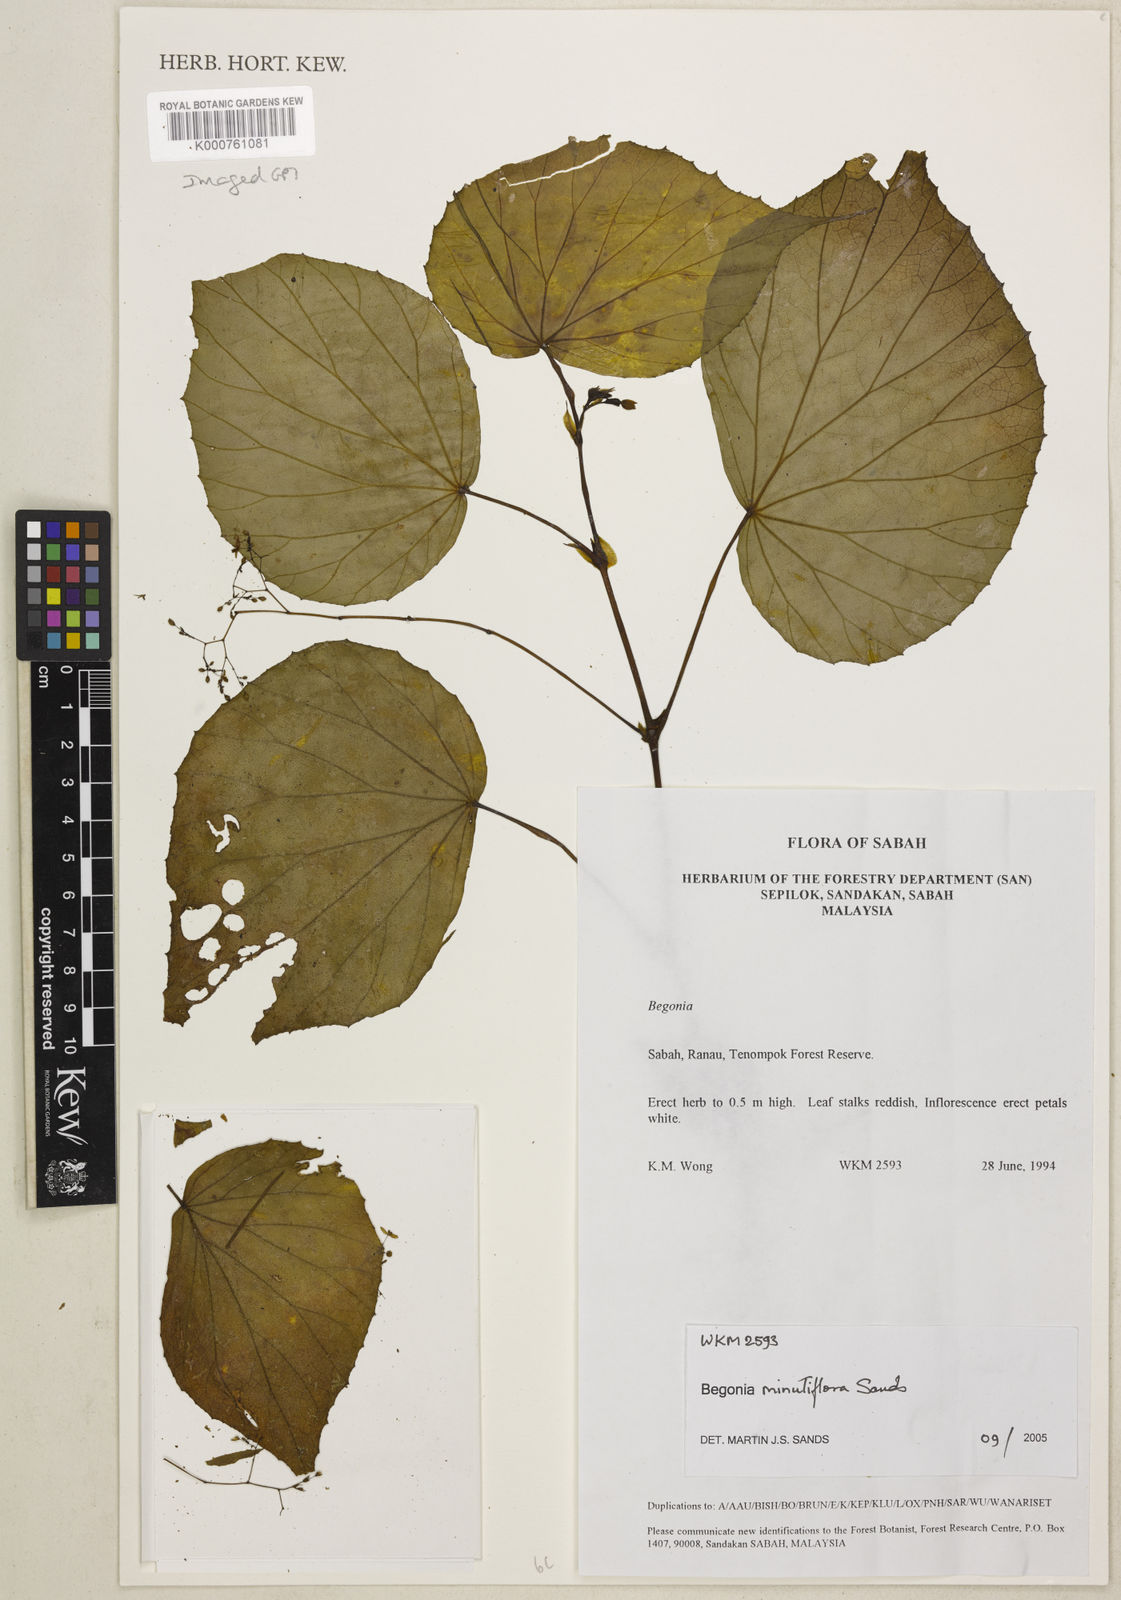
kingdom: Plantae
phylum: Tracheophyta
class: Magnoliopsida
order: Cucurbitales
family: Begoniaceae
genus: Begonia
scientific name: Begonia minutiflora
